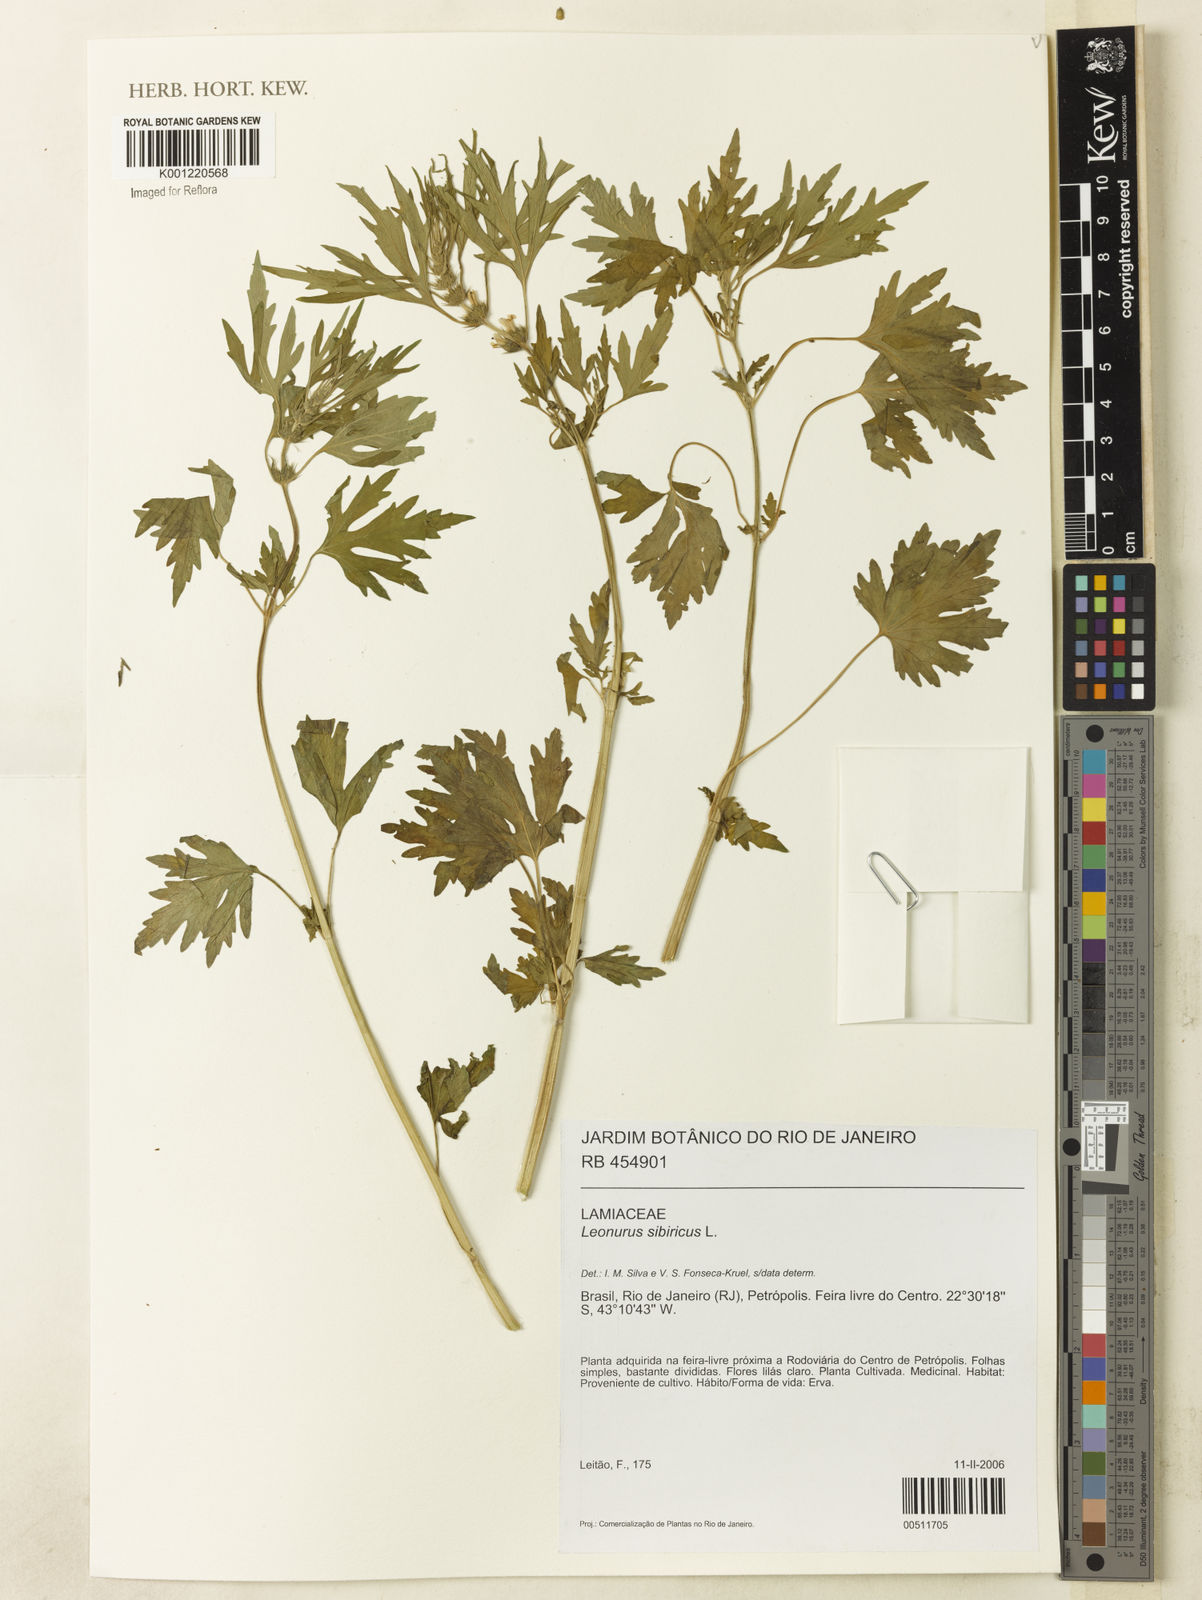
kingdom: Plantae
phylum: Tracheophyta
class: Magnoliopsida
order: Lamiales
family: Lamiaceae
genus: Leonurus
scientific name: Leonurus japonicus
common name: Honeyweed
